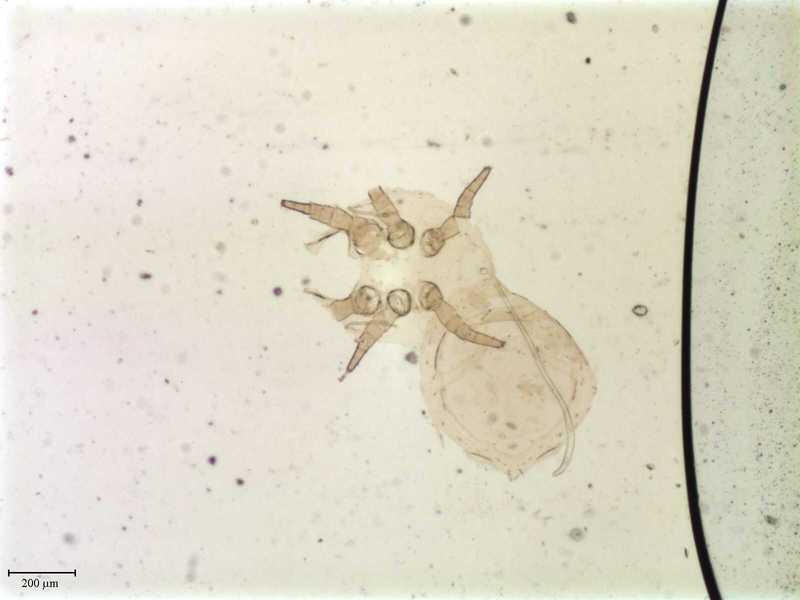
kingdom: Animalia
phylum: Arthropoda
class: Arachnida
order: Mesostigmata
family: Uroactiniidae
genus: Uroactinia
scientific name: Uroactinia hippocrepoides
